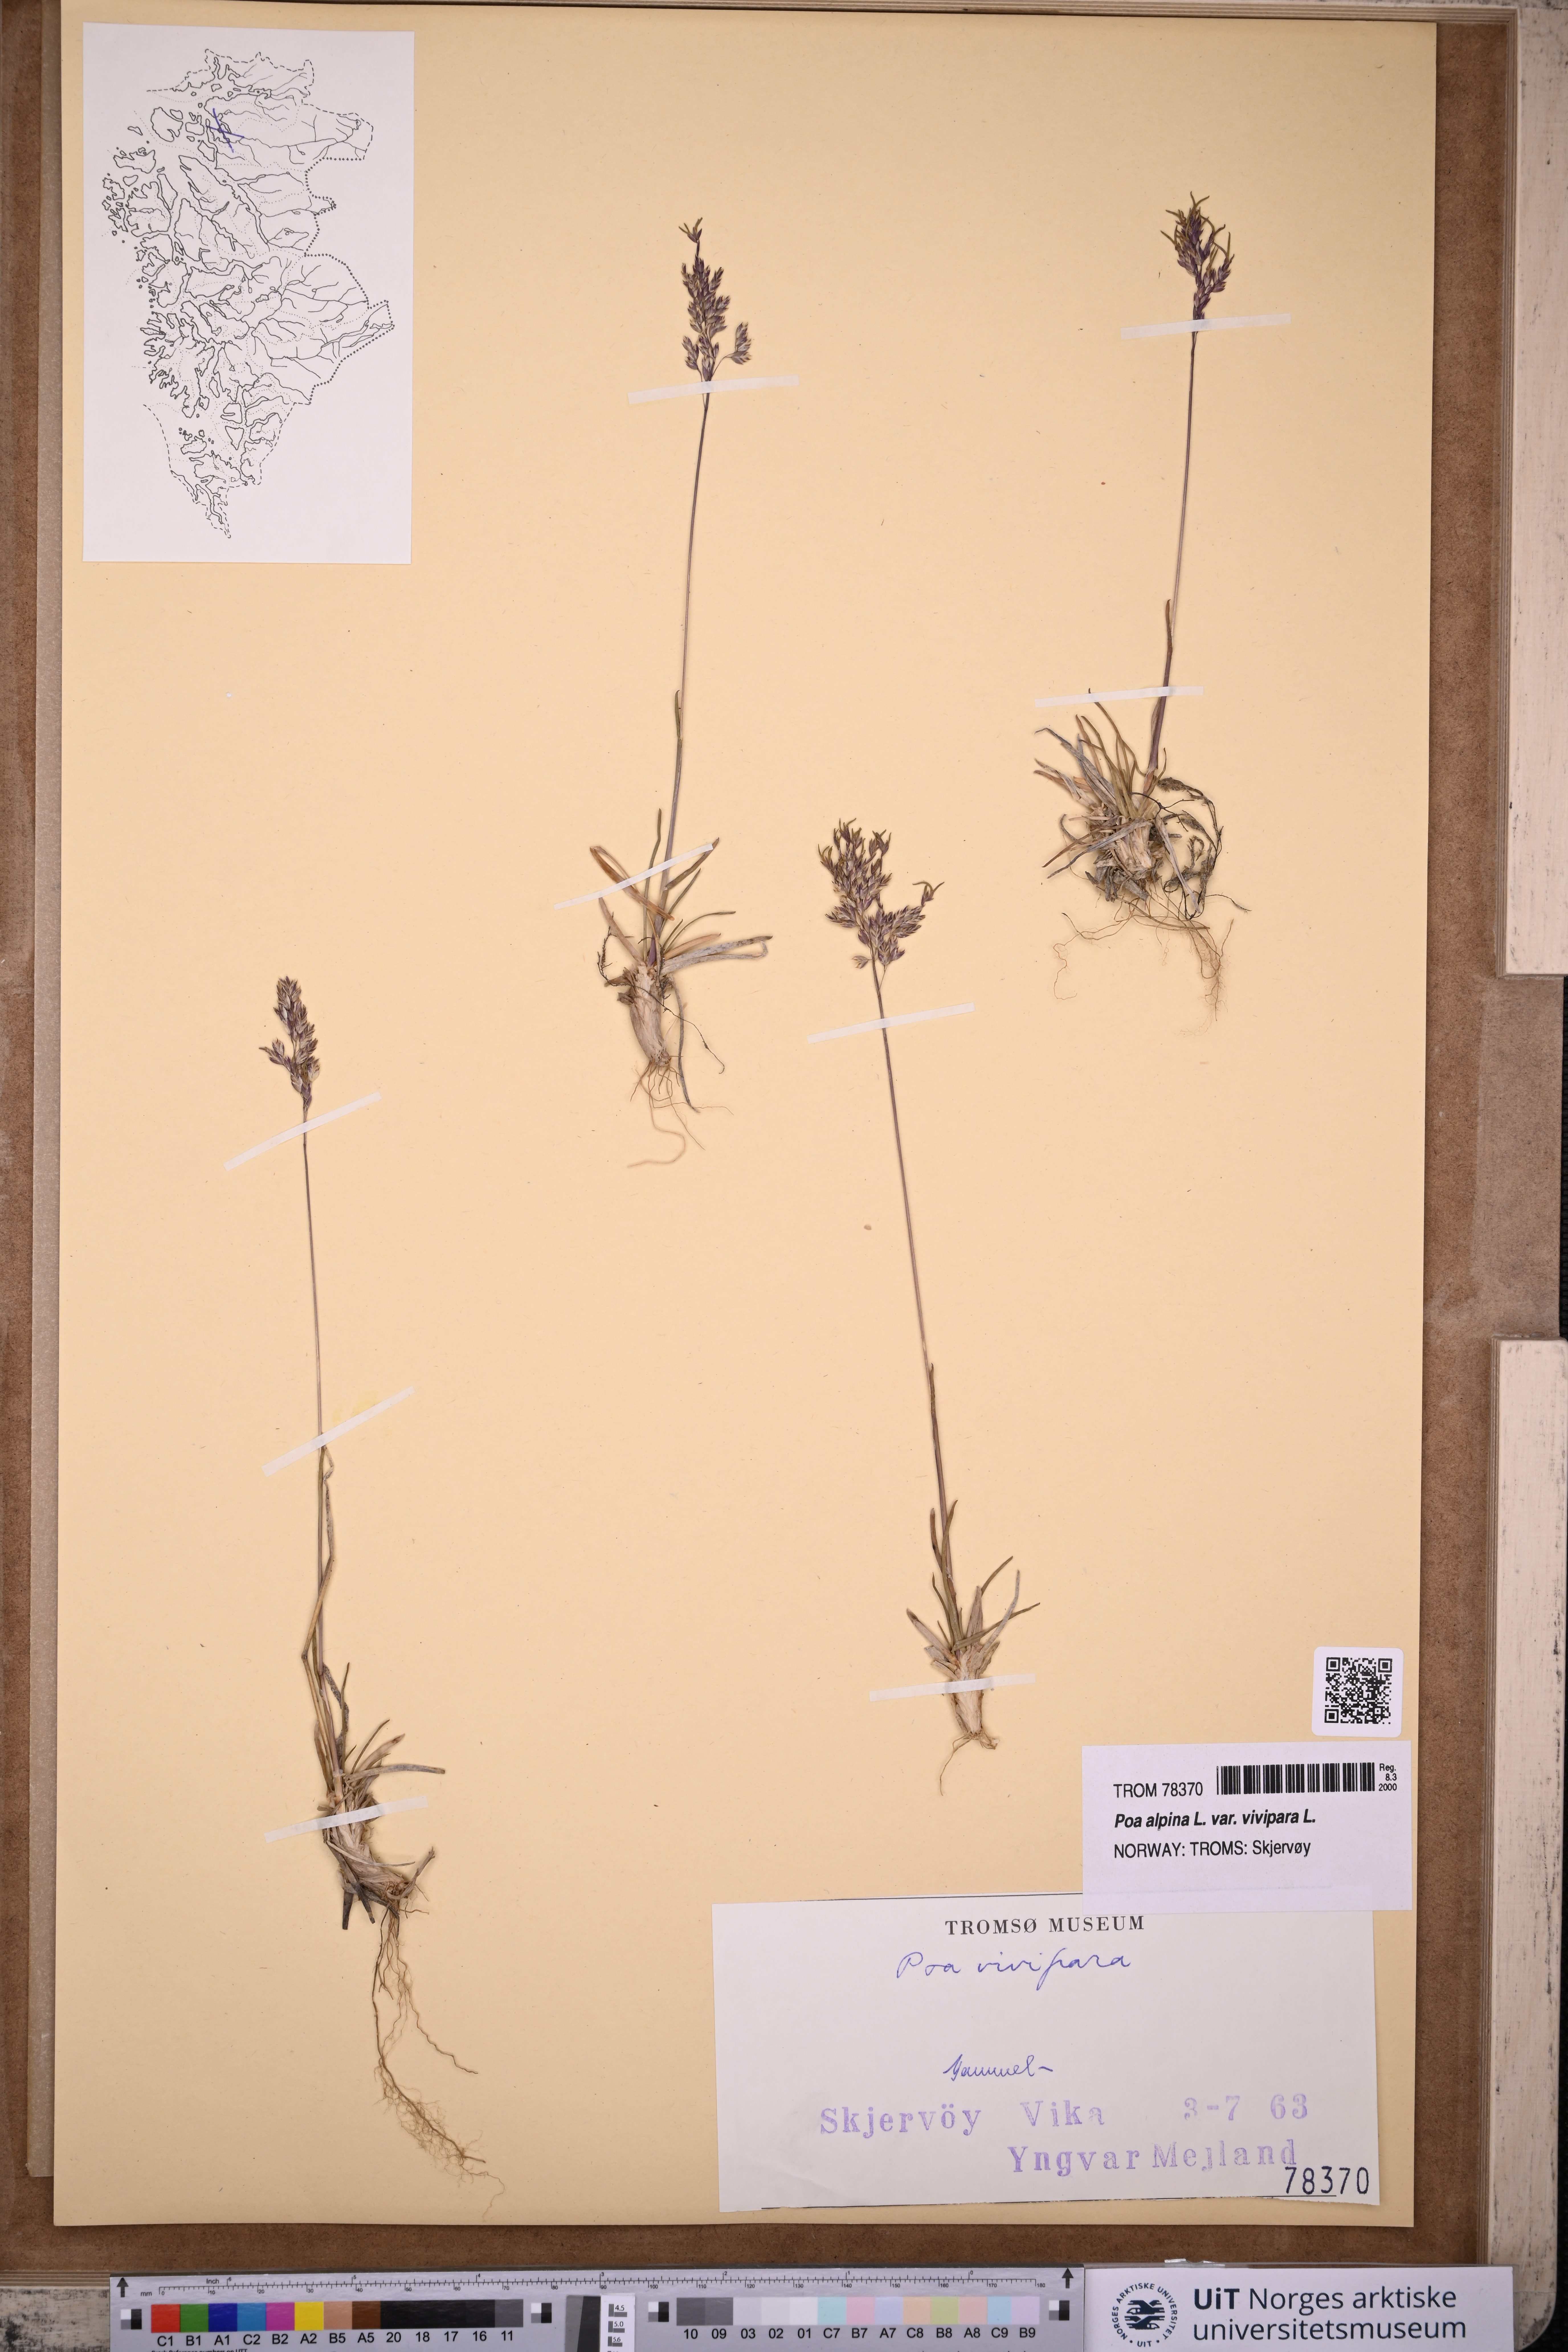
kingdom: Plantae
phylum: Tracheophyta
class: Liliopsida
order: Poales
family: Poaceae
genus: Poa
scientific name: Poa alpina
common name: Alpine bluegrass
